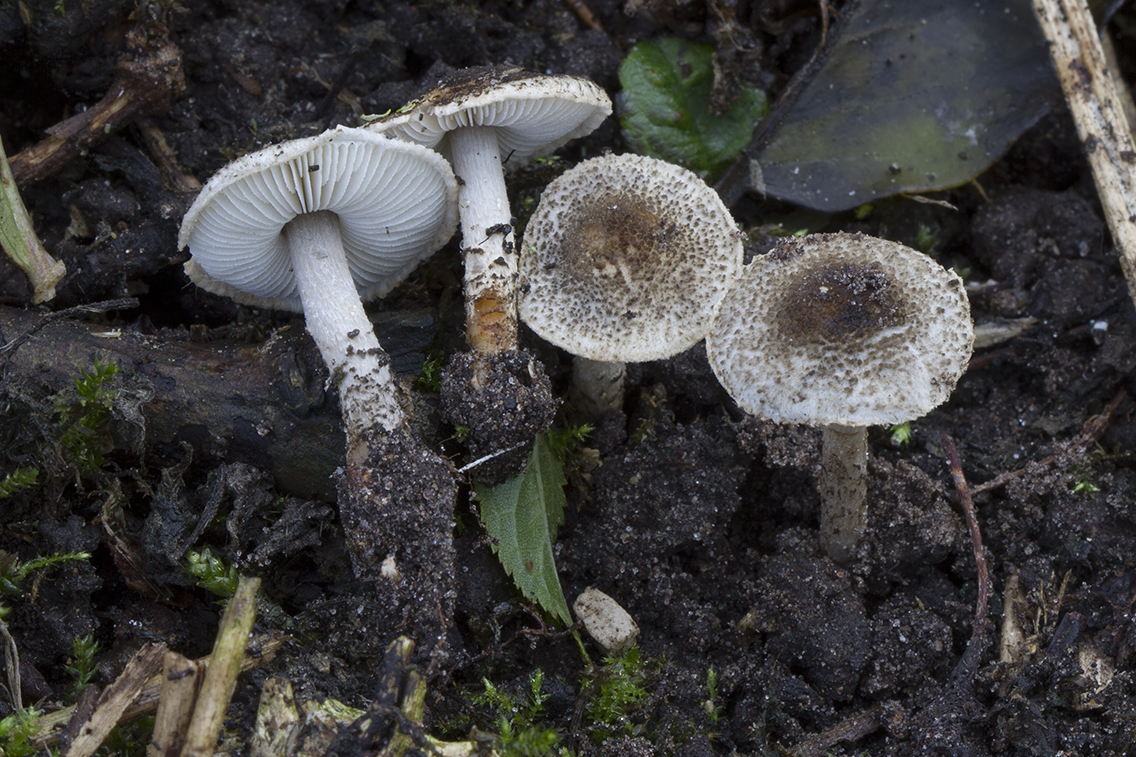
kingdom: Fungi
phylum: Basidiomycota
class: Agaricomycetes
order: Agaricales
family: Agaricaceae
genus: Lepiota
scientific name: Lepiota griseovirens
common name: grågrøn parasolhat
